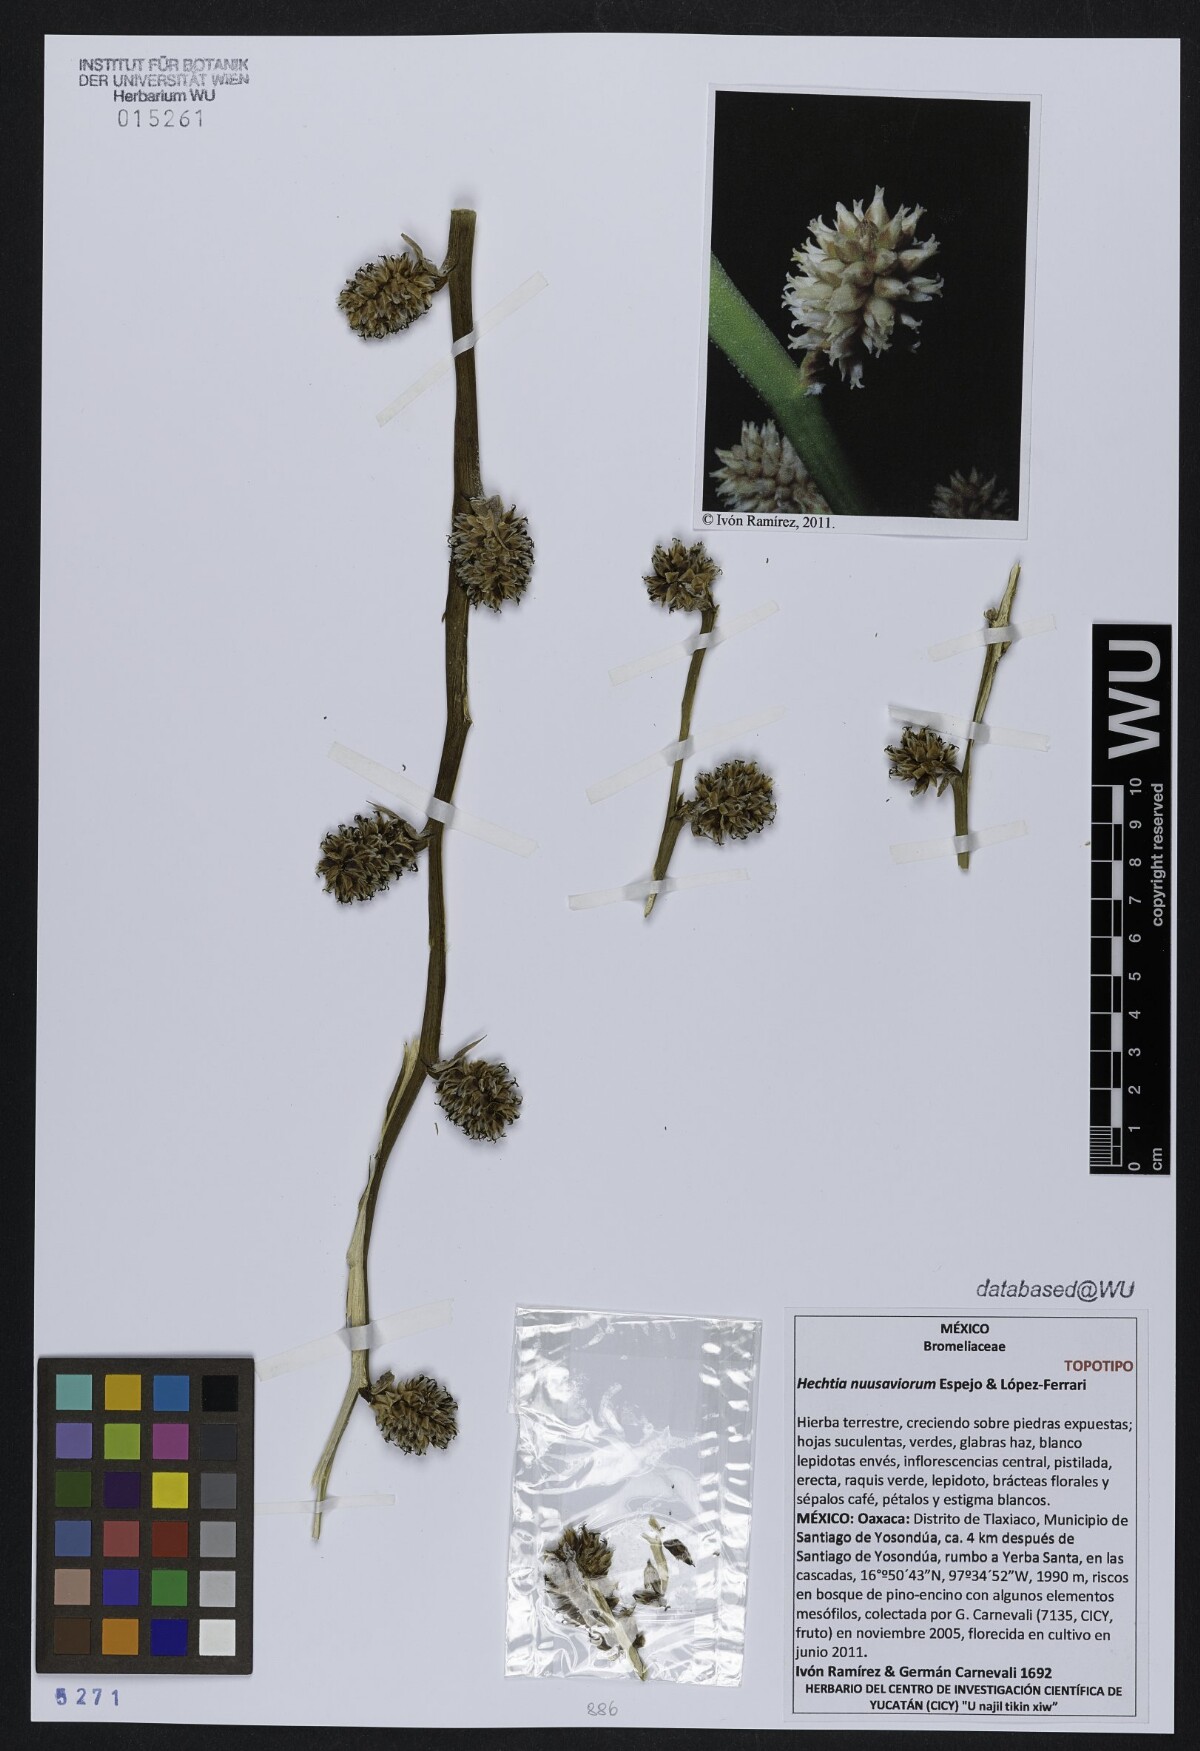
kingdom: Plantae
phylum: Tracheophyta
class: Liliopsida
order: Poales
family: Bromeliaceae
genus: Hechtia
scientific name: Hechtia nuusaviorum
